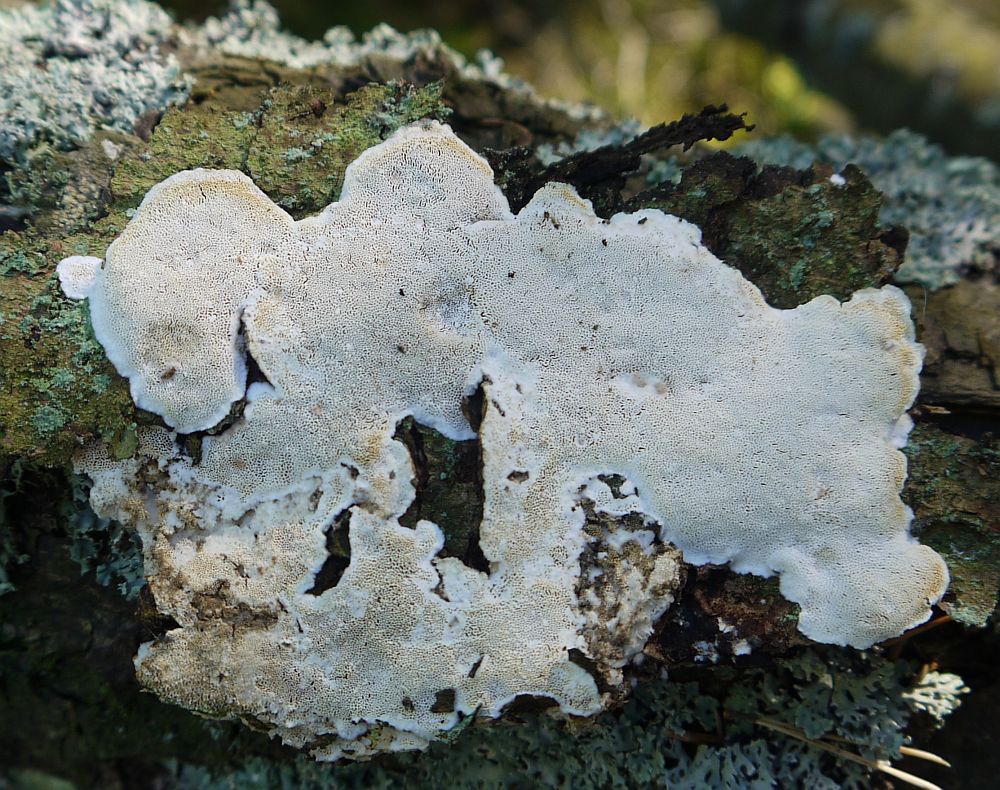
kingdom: Fungi
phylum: Basidiomycota
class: Agaricomycetes
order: Polyporales
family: Gelatoporiaceae
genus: Cinereomyces
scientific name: Cinereomyces lindbladii
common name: almindelig gråporesvamp
